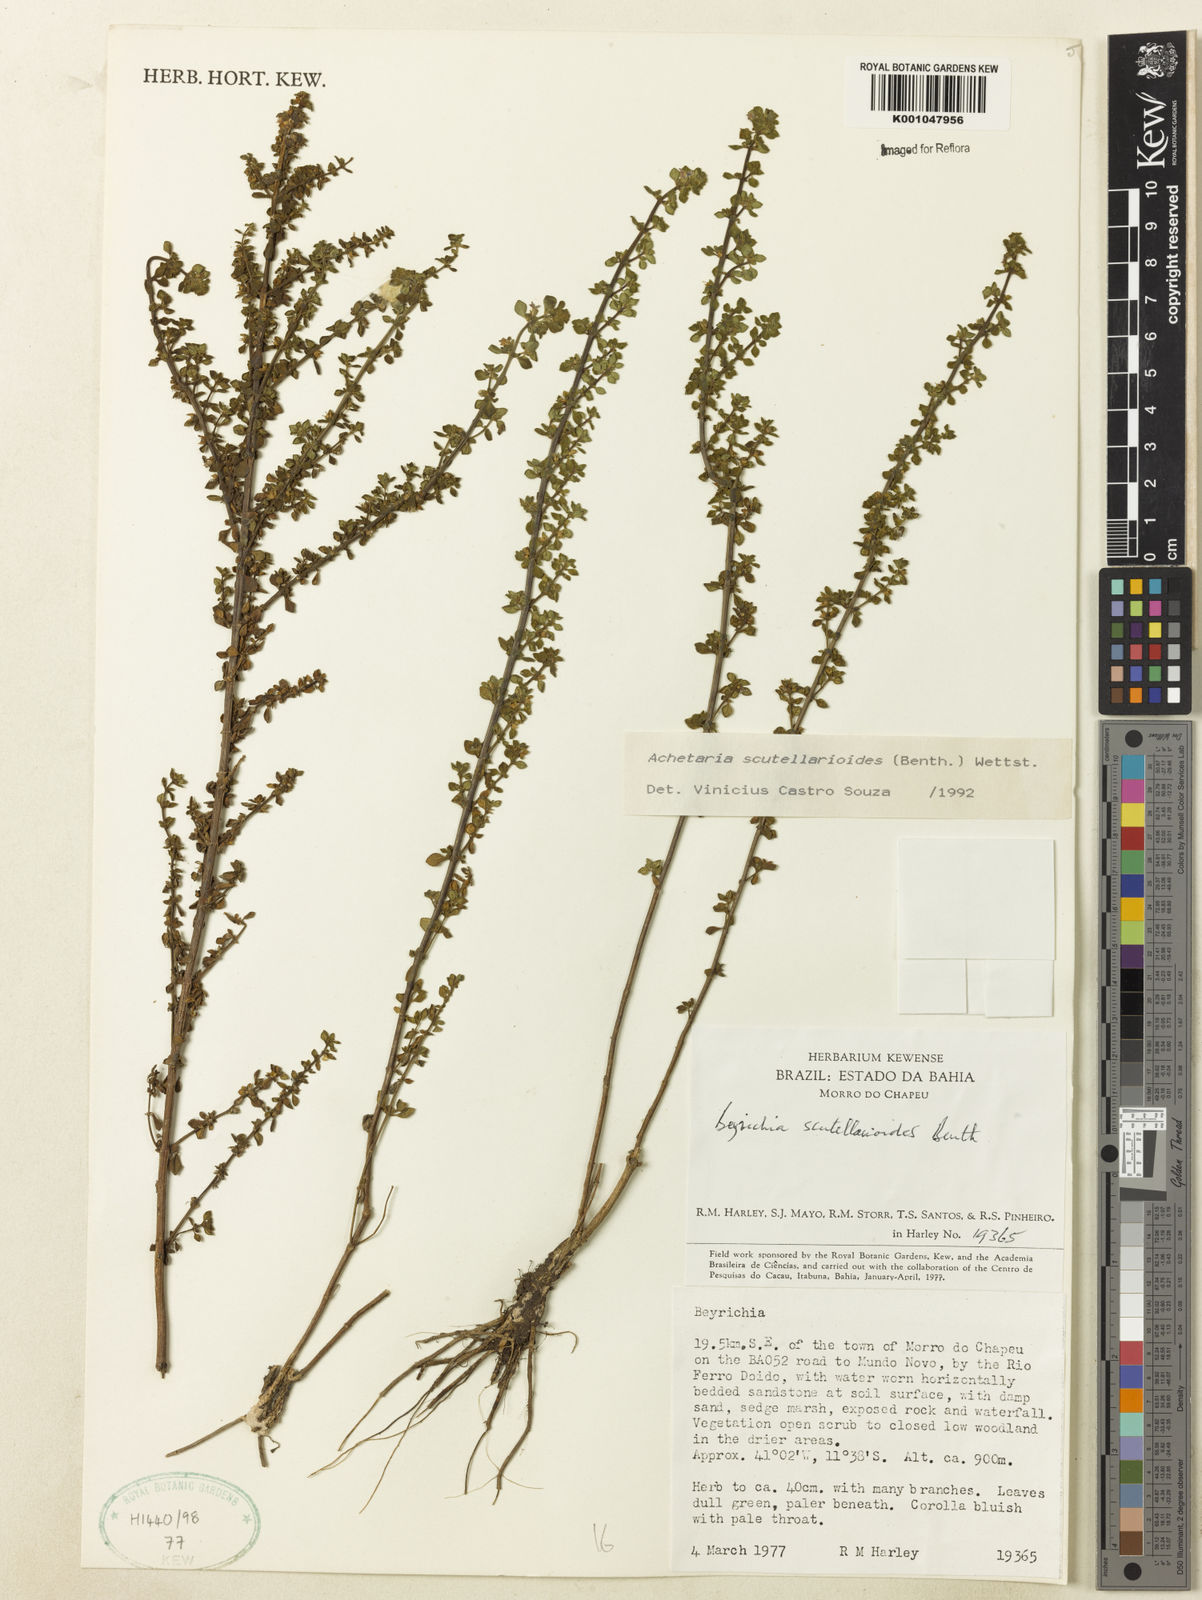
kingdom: Plantae
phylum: Tracheophyta
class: Magnoliopsida
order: Lamiales
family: Plantaginaceae
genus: Matourea
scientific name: Matourea scutellarioides
